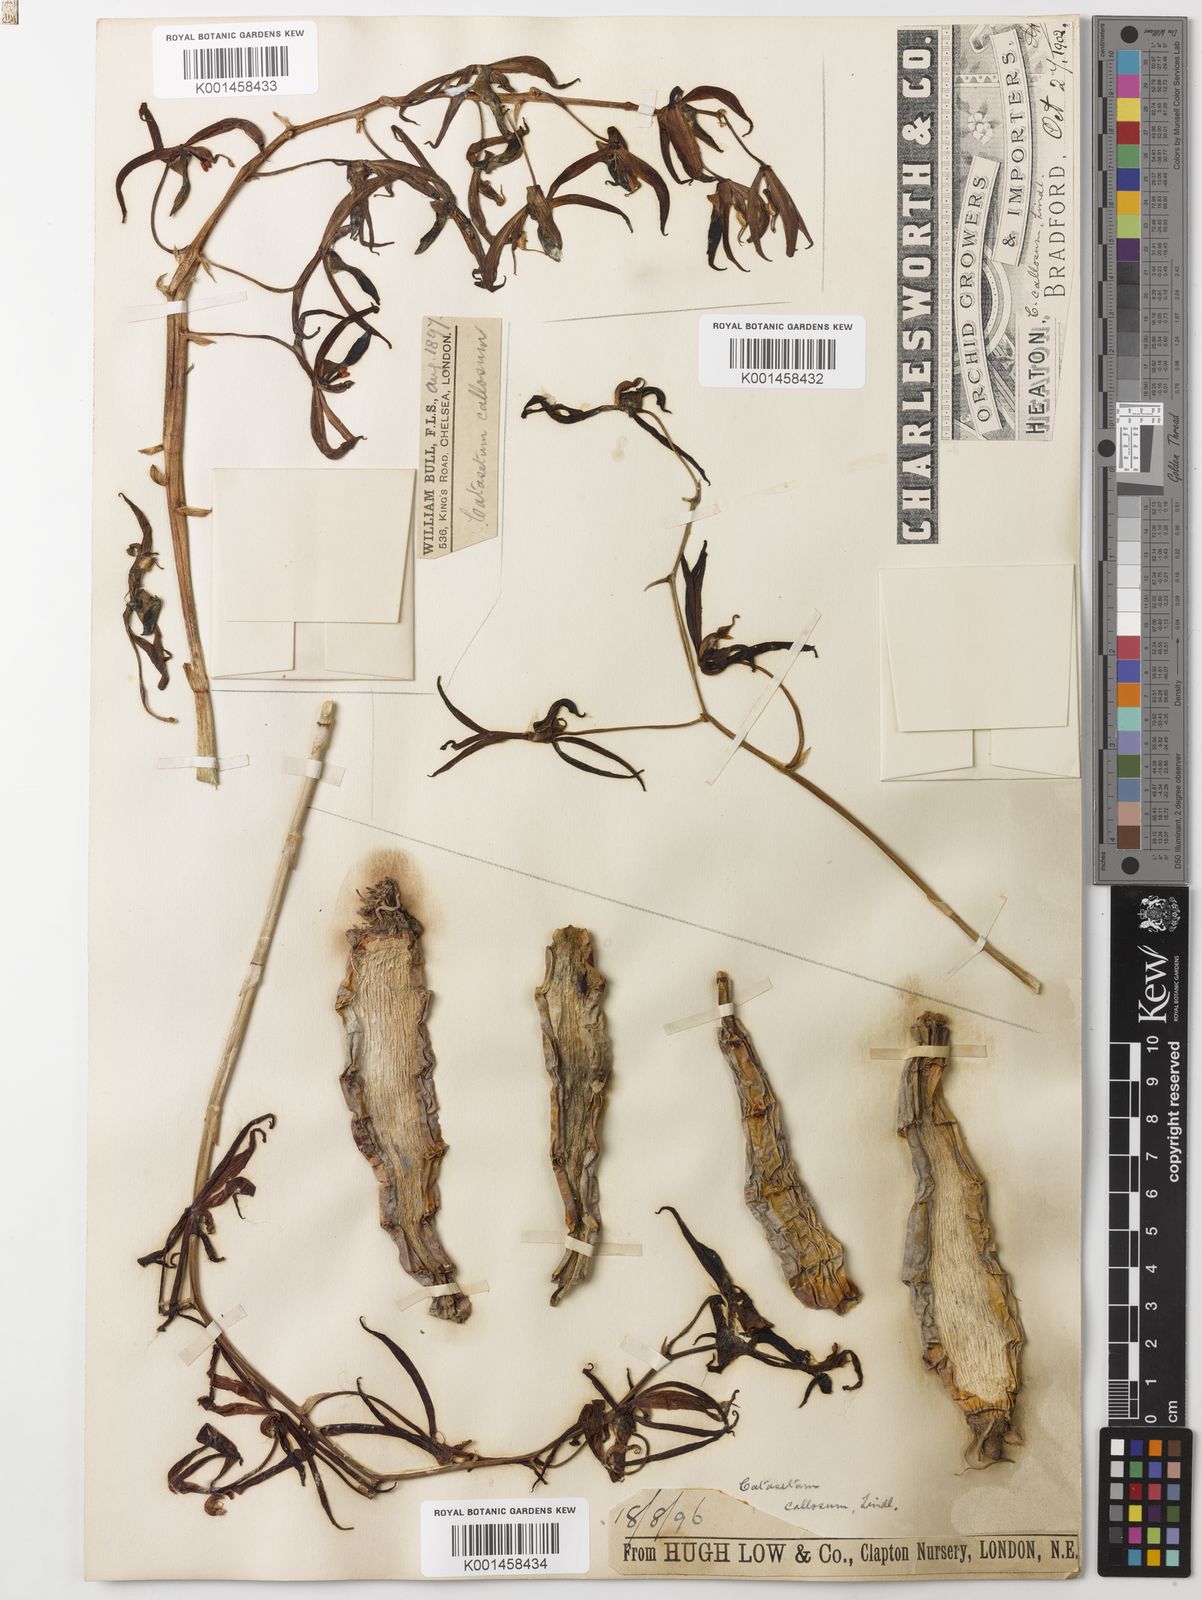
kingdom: Plantae
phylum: Tracheophyta
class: Liliopsida
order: Asparagales
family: Orchidaceae
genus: Catasetum
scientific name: Catasetum callosum
